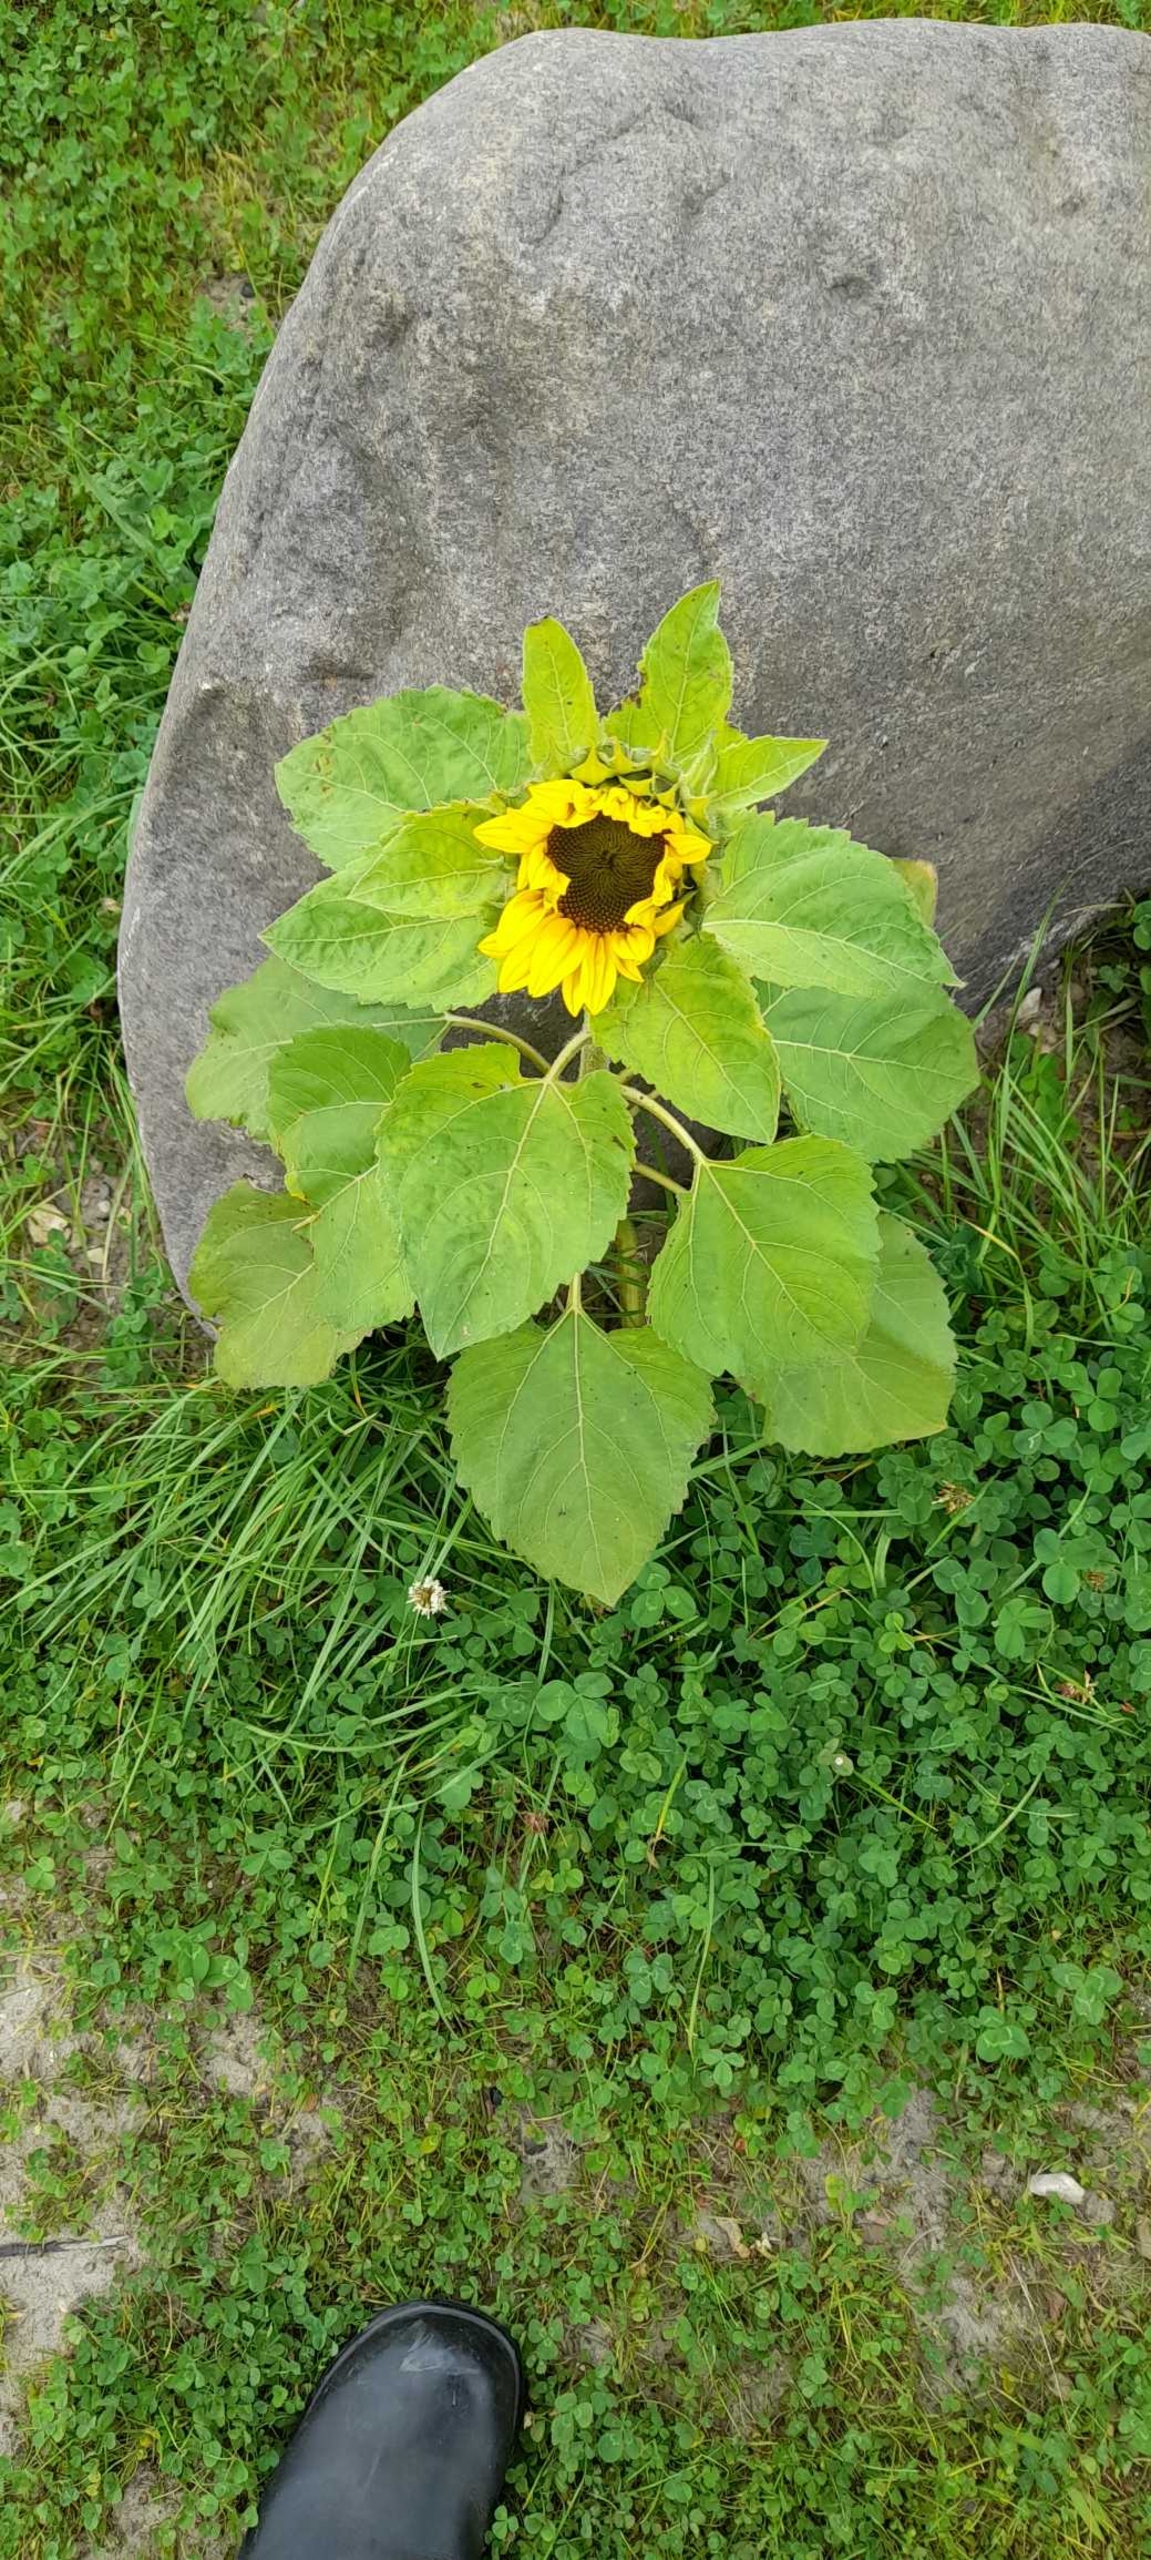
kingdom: Plantae
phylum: Tracheophyta
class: Magnoliopsida
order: Asterales
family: Asteraceae
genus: Helianthus
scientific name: Helianthus annuus
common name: Solsikke
